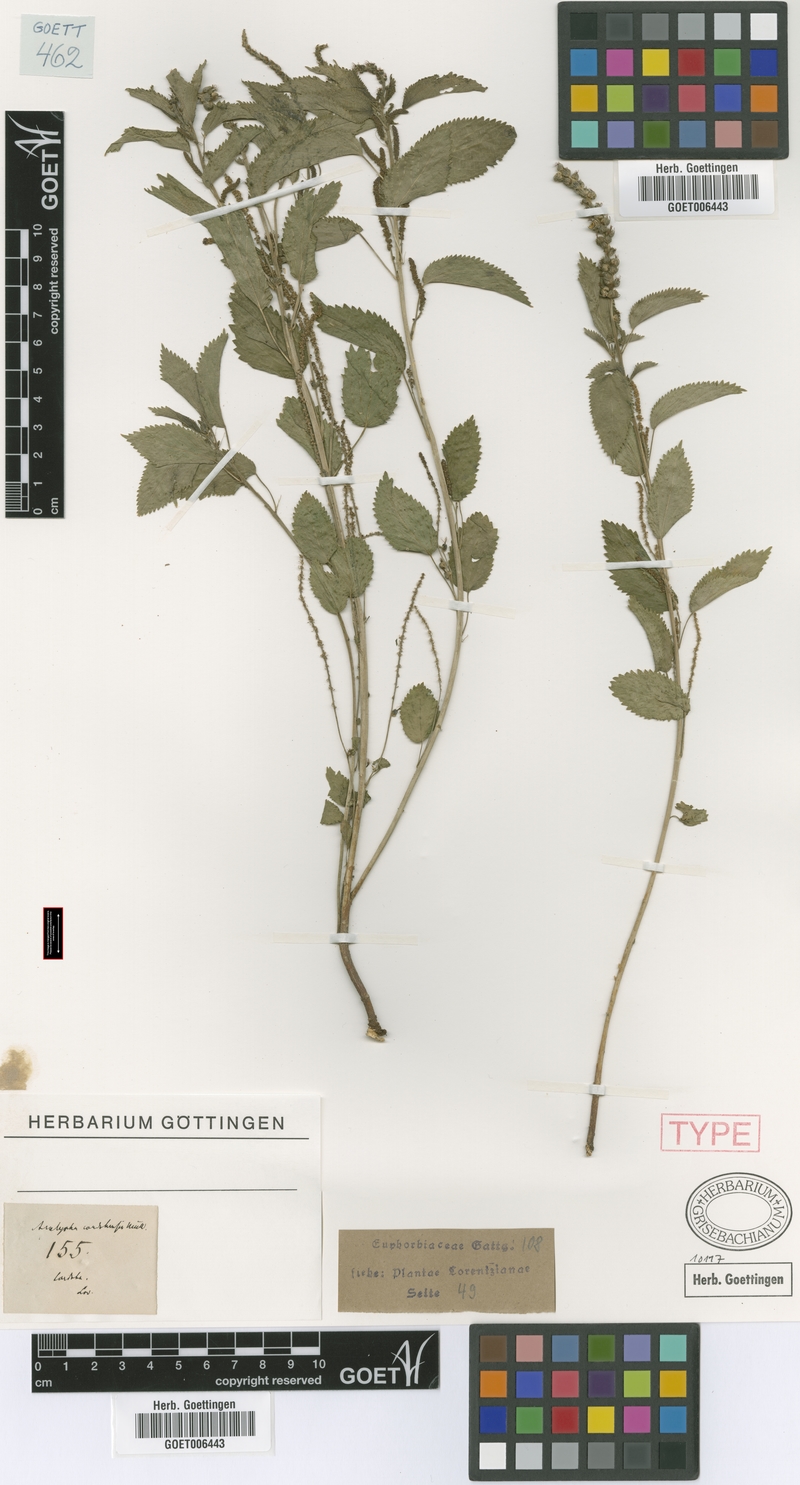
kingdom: Plantae
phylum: Tracheophyta
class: Magnoliopsida
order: Malpighiales
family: Euphorbiaceae
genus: Acalypha
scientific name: Acalypha cordobensis
